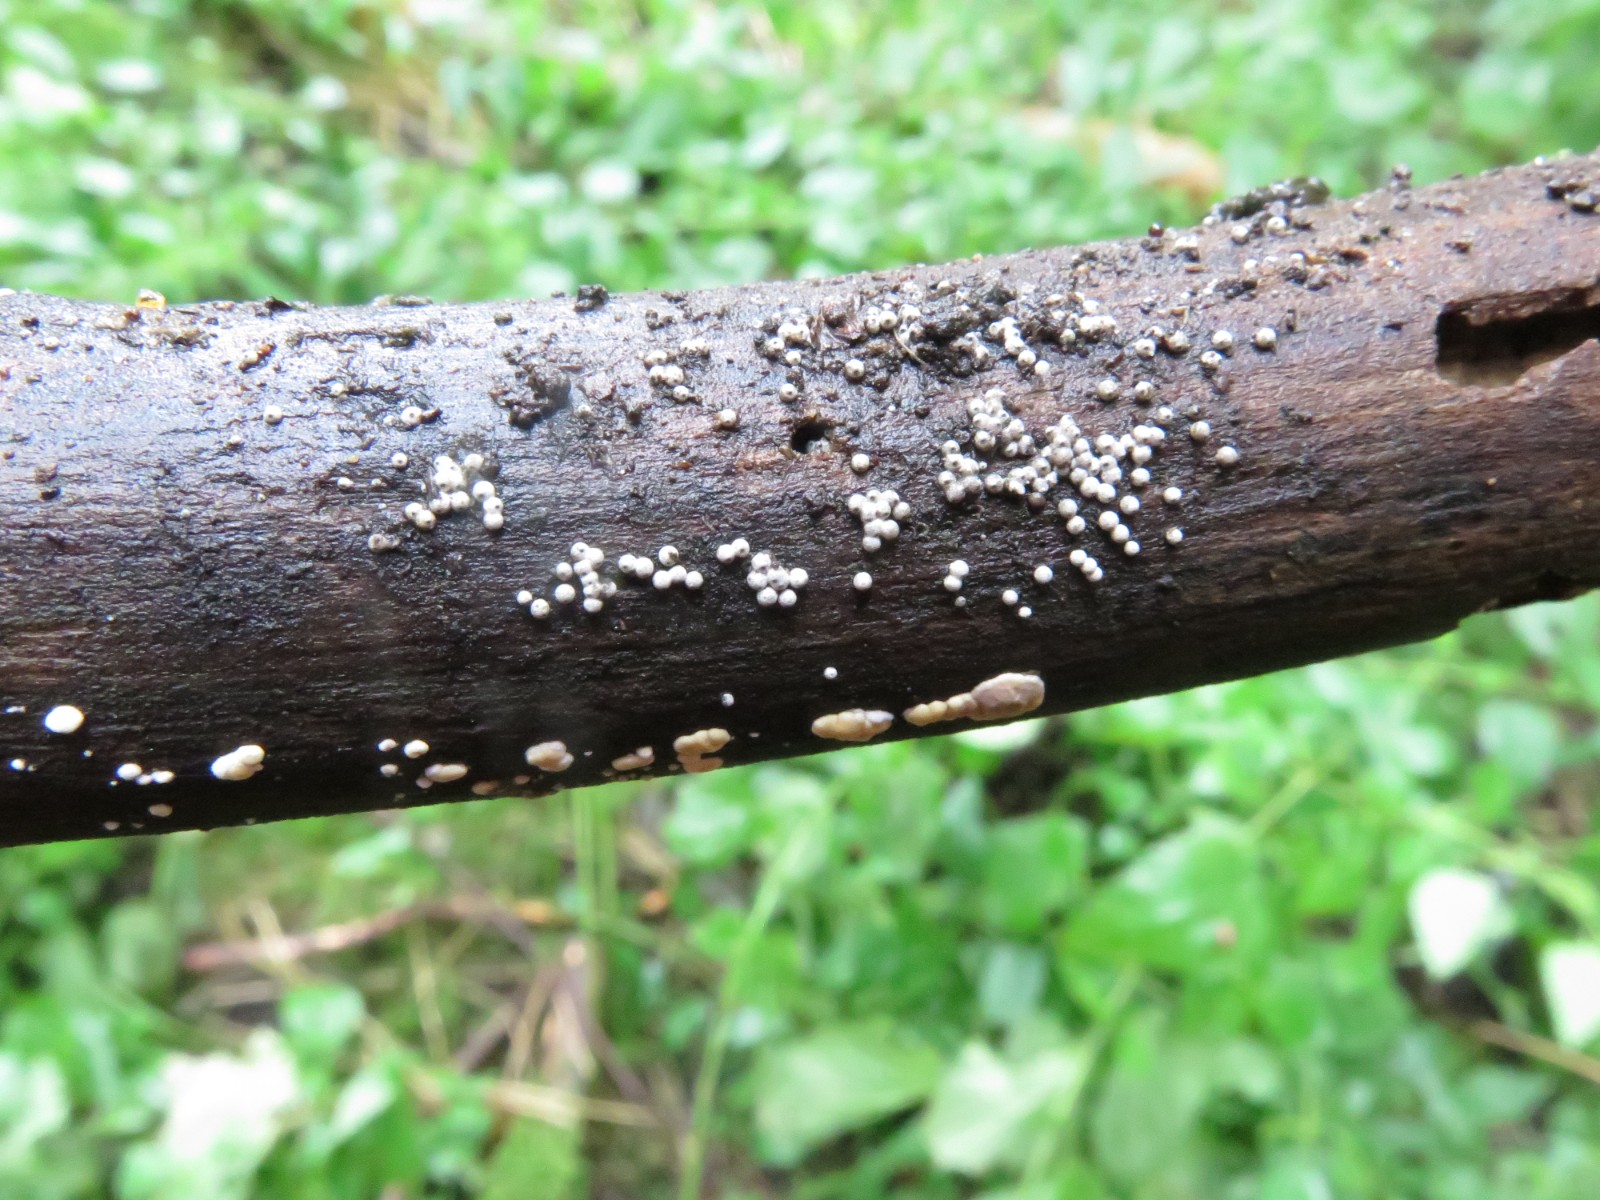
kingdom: Fungi
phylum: Ascomycota
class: Sordariomycetes
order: Sordariales
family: Lasiosphaeriaceae
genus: Lasiosphaeria
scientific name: Lasiosphaeria ovina
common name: fåre-kernesvamp
